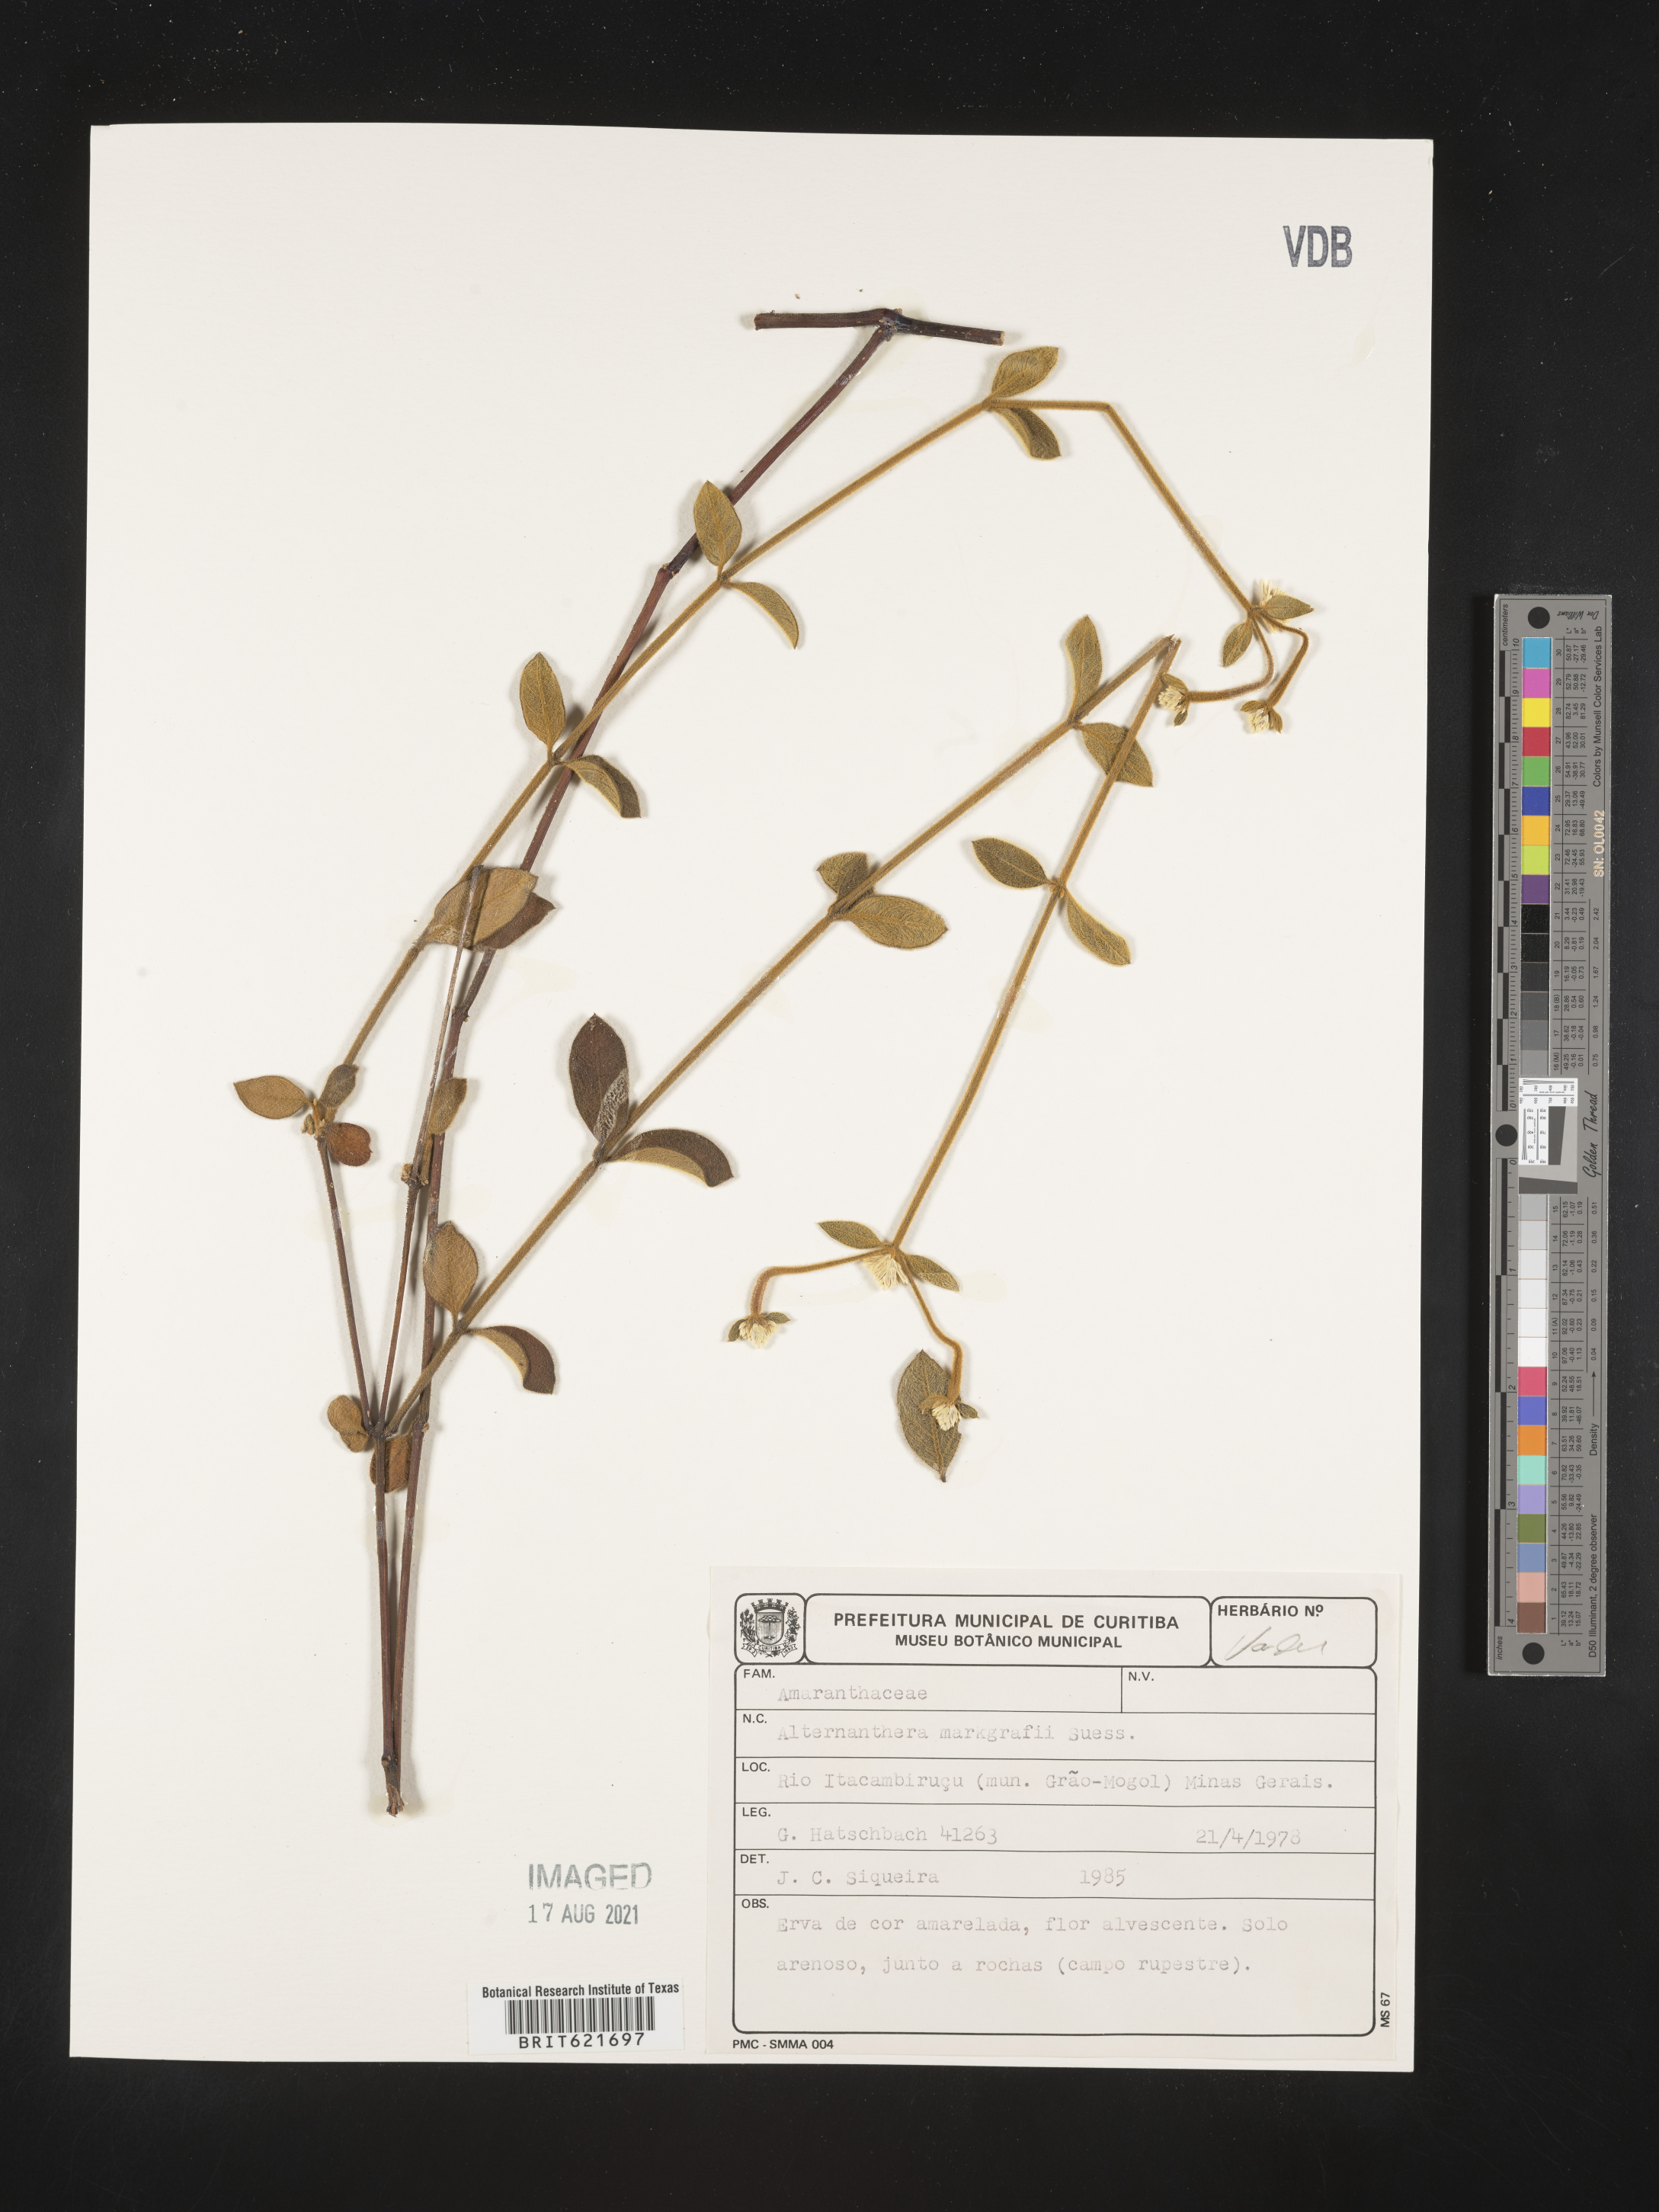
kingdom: Plantae
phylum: Tracheophyta
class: Magnoliopsida
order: Caryophyllales
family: Amaranthaceae
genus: Alternanthera
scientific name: Alternanthera markgrafii
